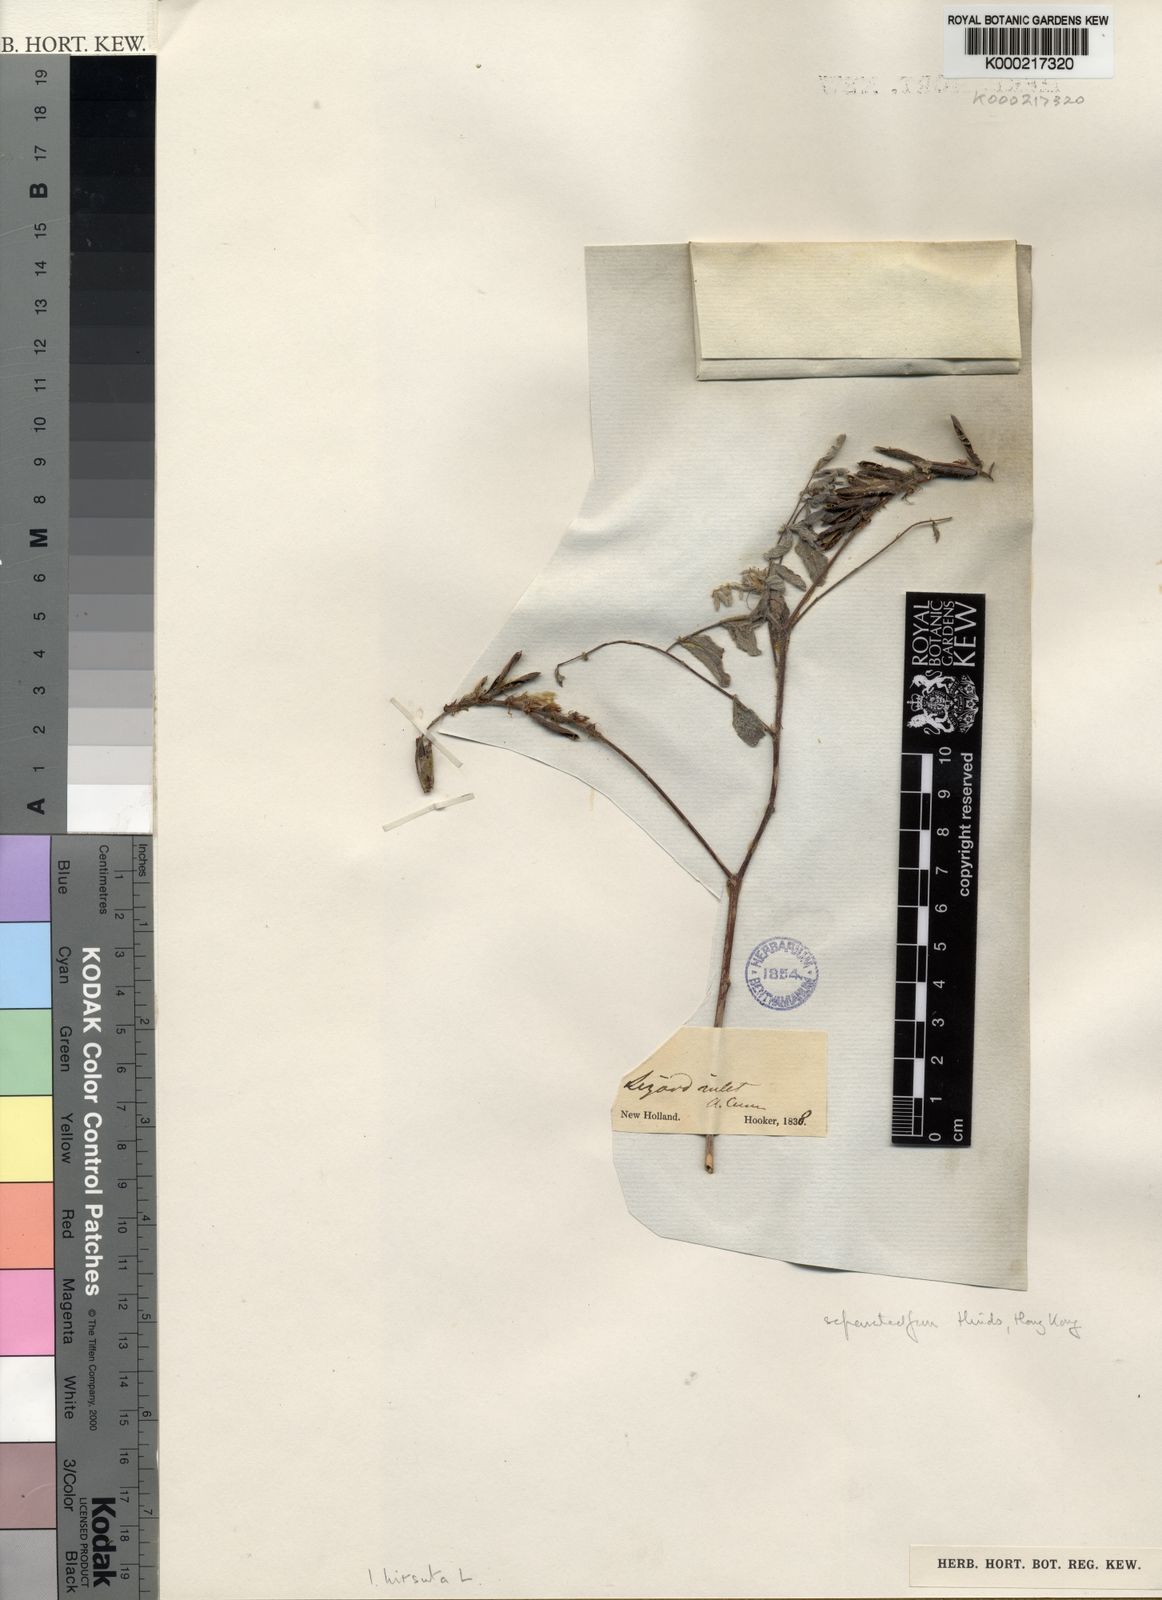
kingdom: Plantae
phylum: Tracheophyta
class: Magnoliopsida
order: Fabales
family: Fabaceae
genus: Indigofera
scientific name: Indigofera hirsuta
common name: Hairy indigo
